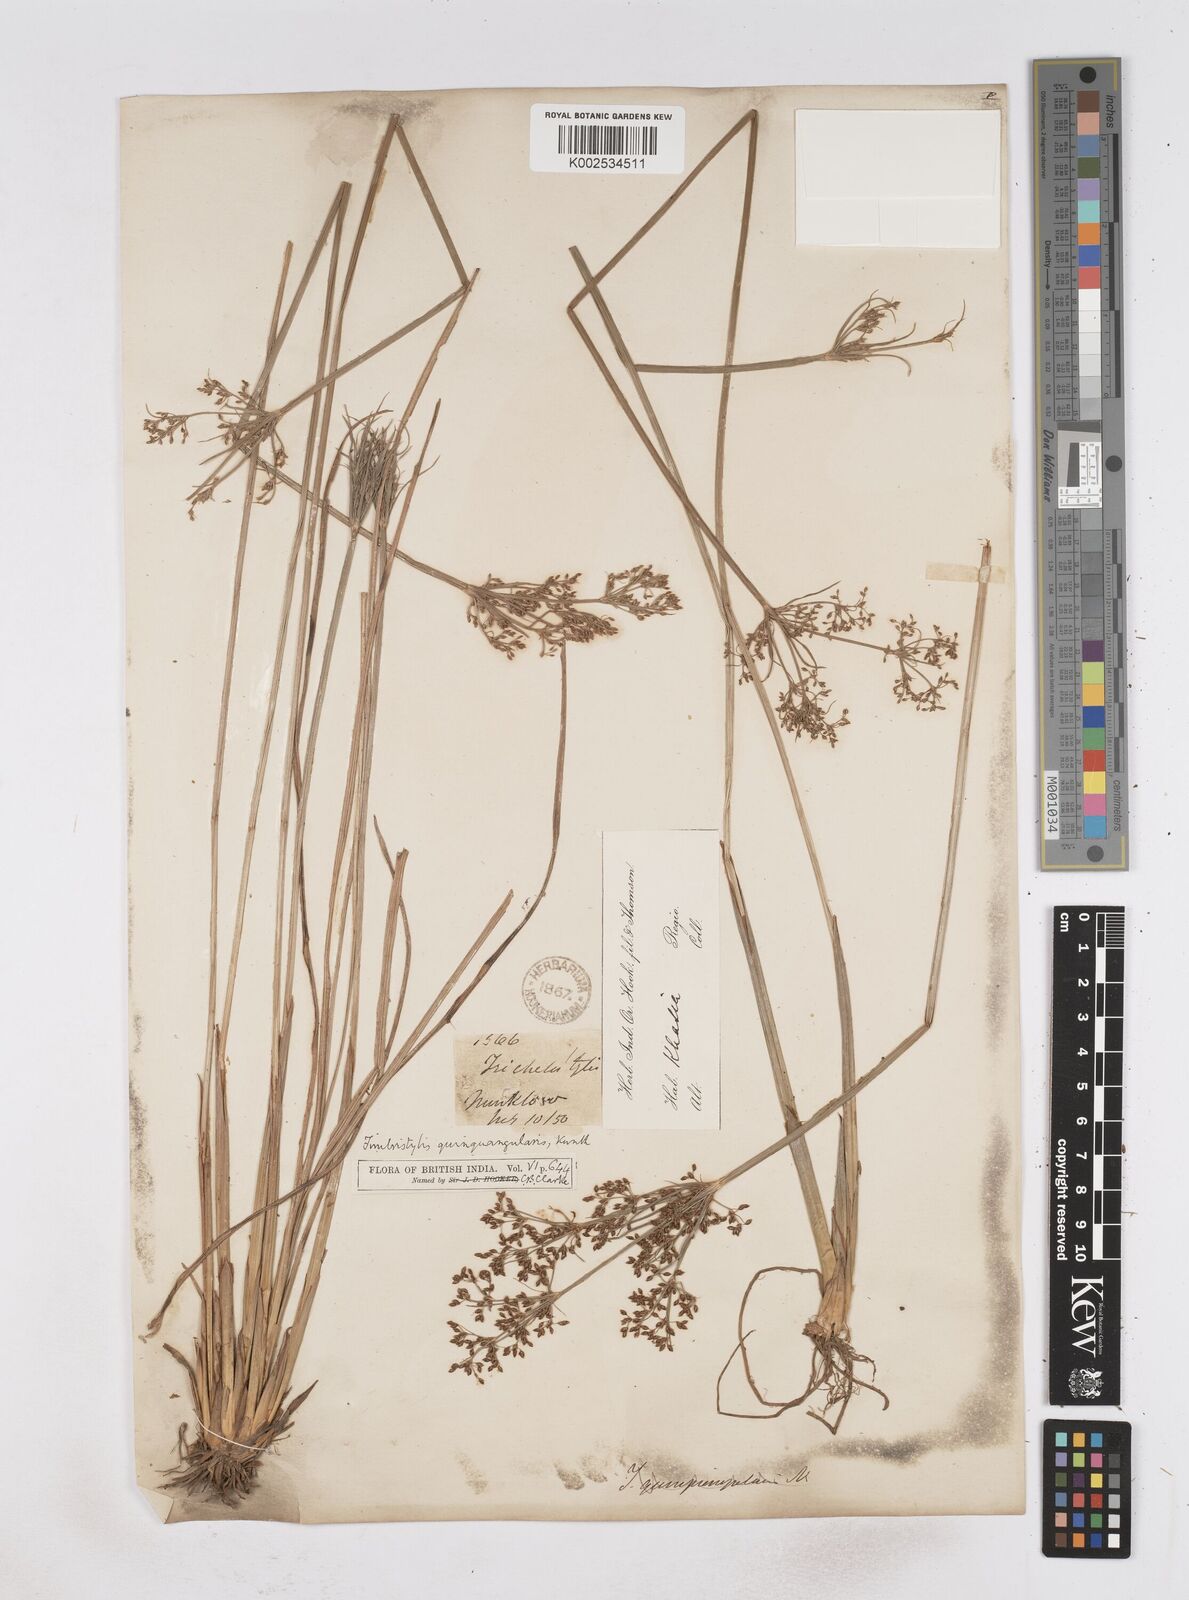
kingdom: Plantae
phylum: Tracheophyta
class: Liliopsida
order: Poales
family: Cyperaceae
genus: Fimbristylis
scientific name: Fimbristylis quinquangularis
